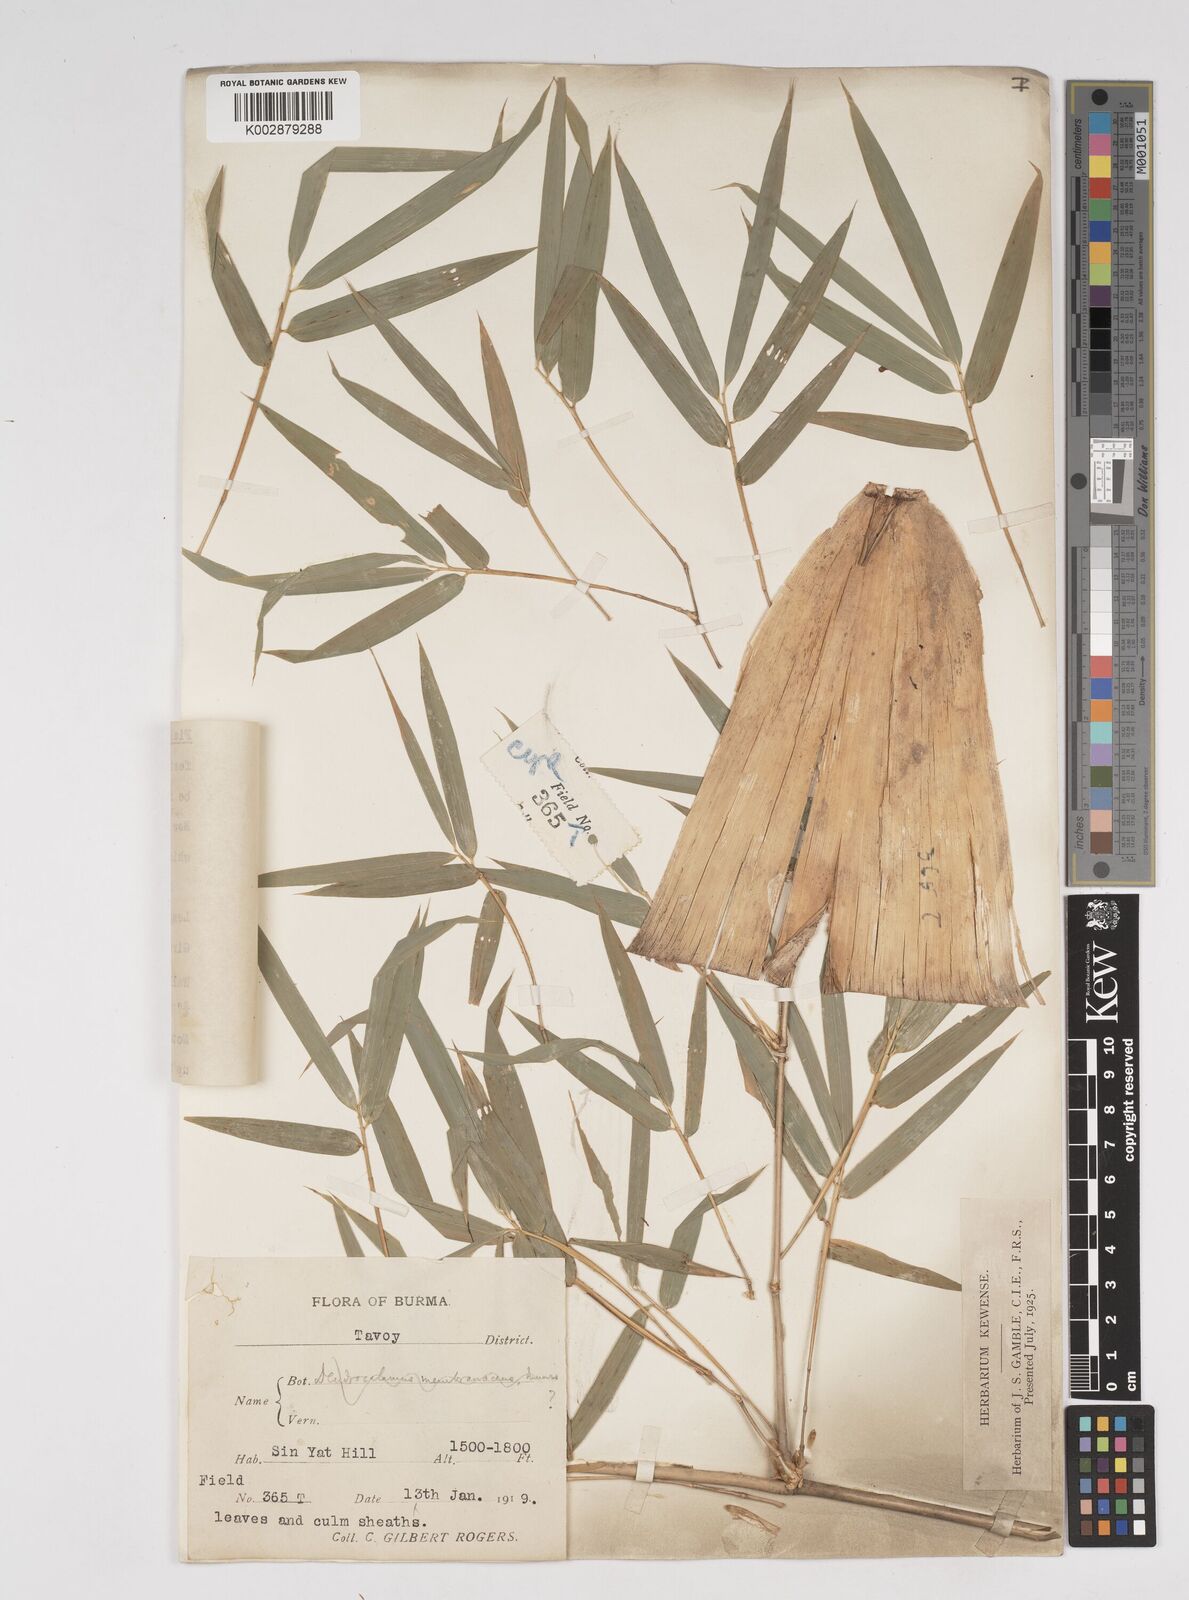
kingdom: Plantae
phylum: Tracheophyta
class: Liliopsida
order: Poales
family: Poaceae
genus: Dendrocalamus
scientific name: Dendrocalamus
